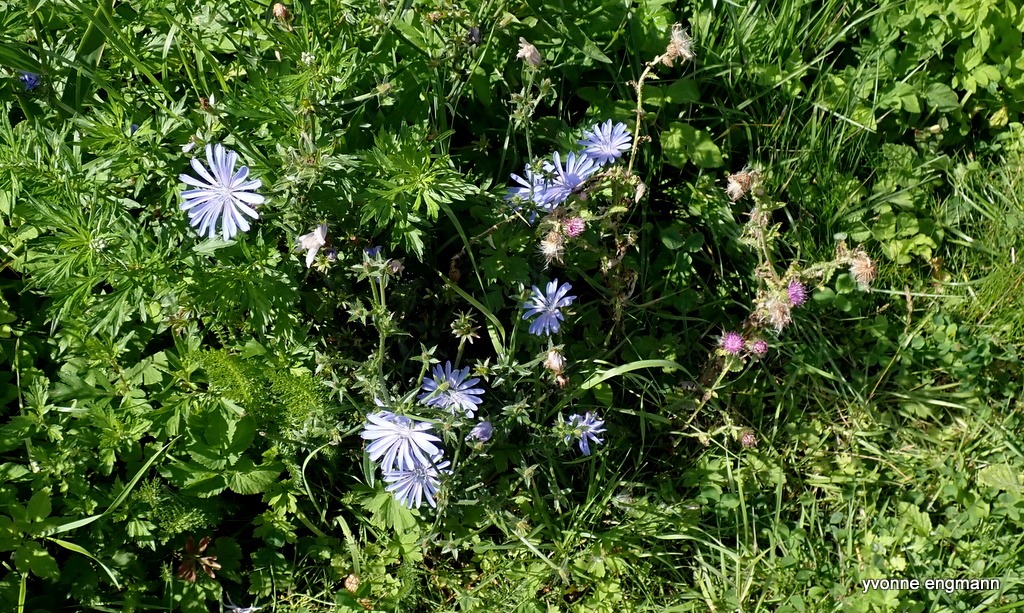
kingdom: Plantae
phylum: Tracheophyta
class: Magnoliopsida
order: Asterales
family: Asteraceae
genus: Cichorium
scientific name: Cichorium intybus
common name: Cikorie
